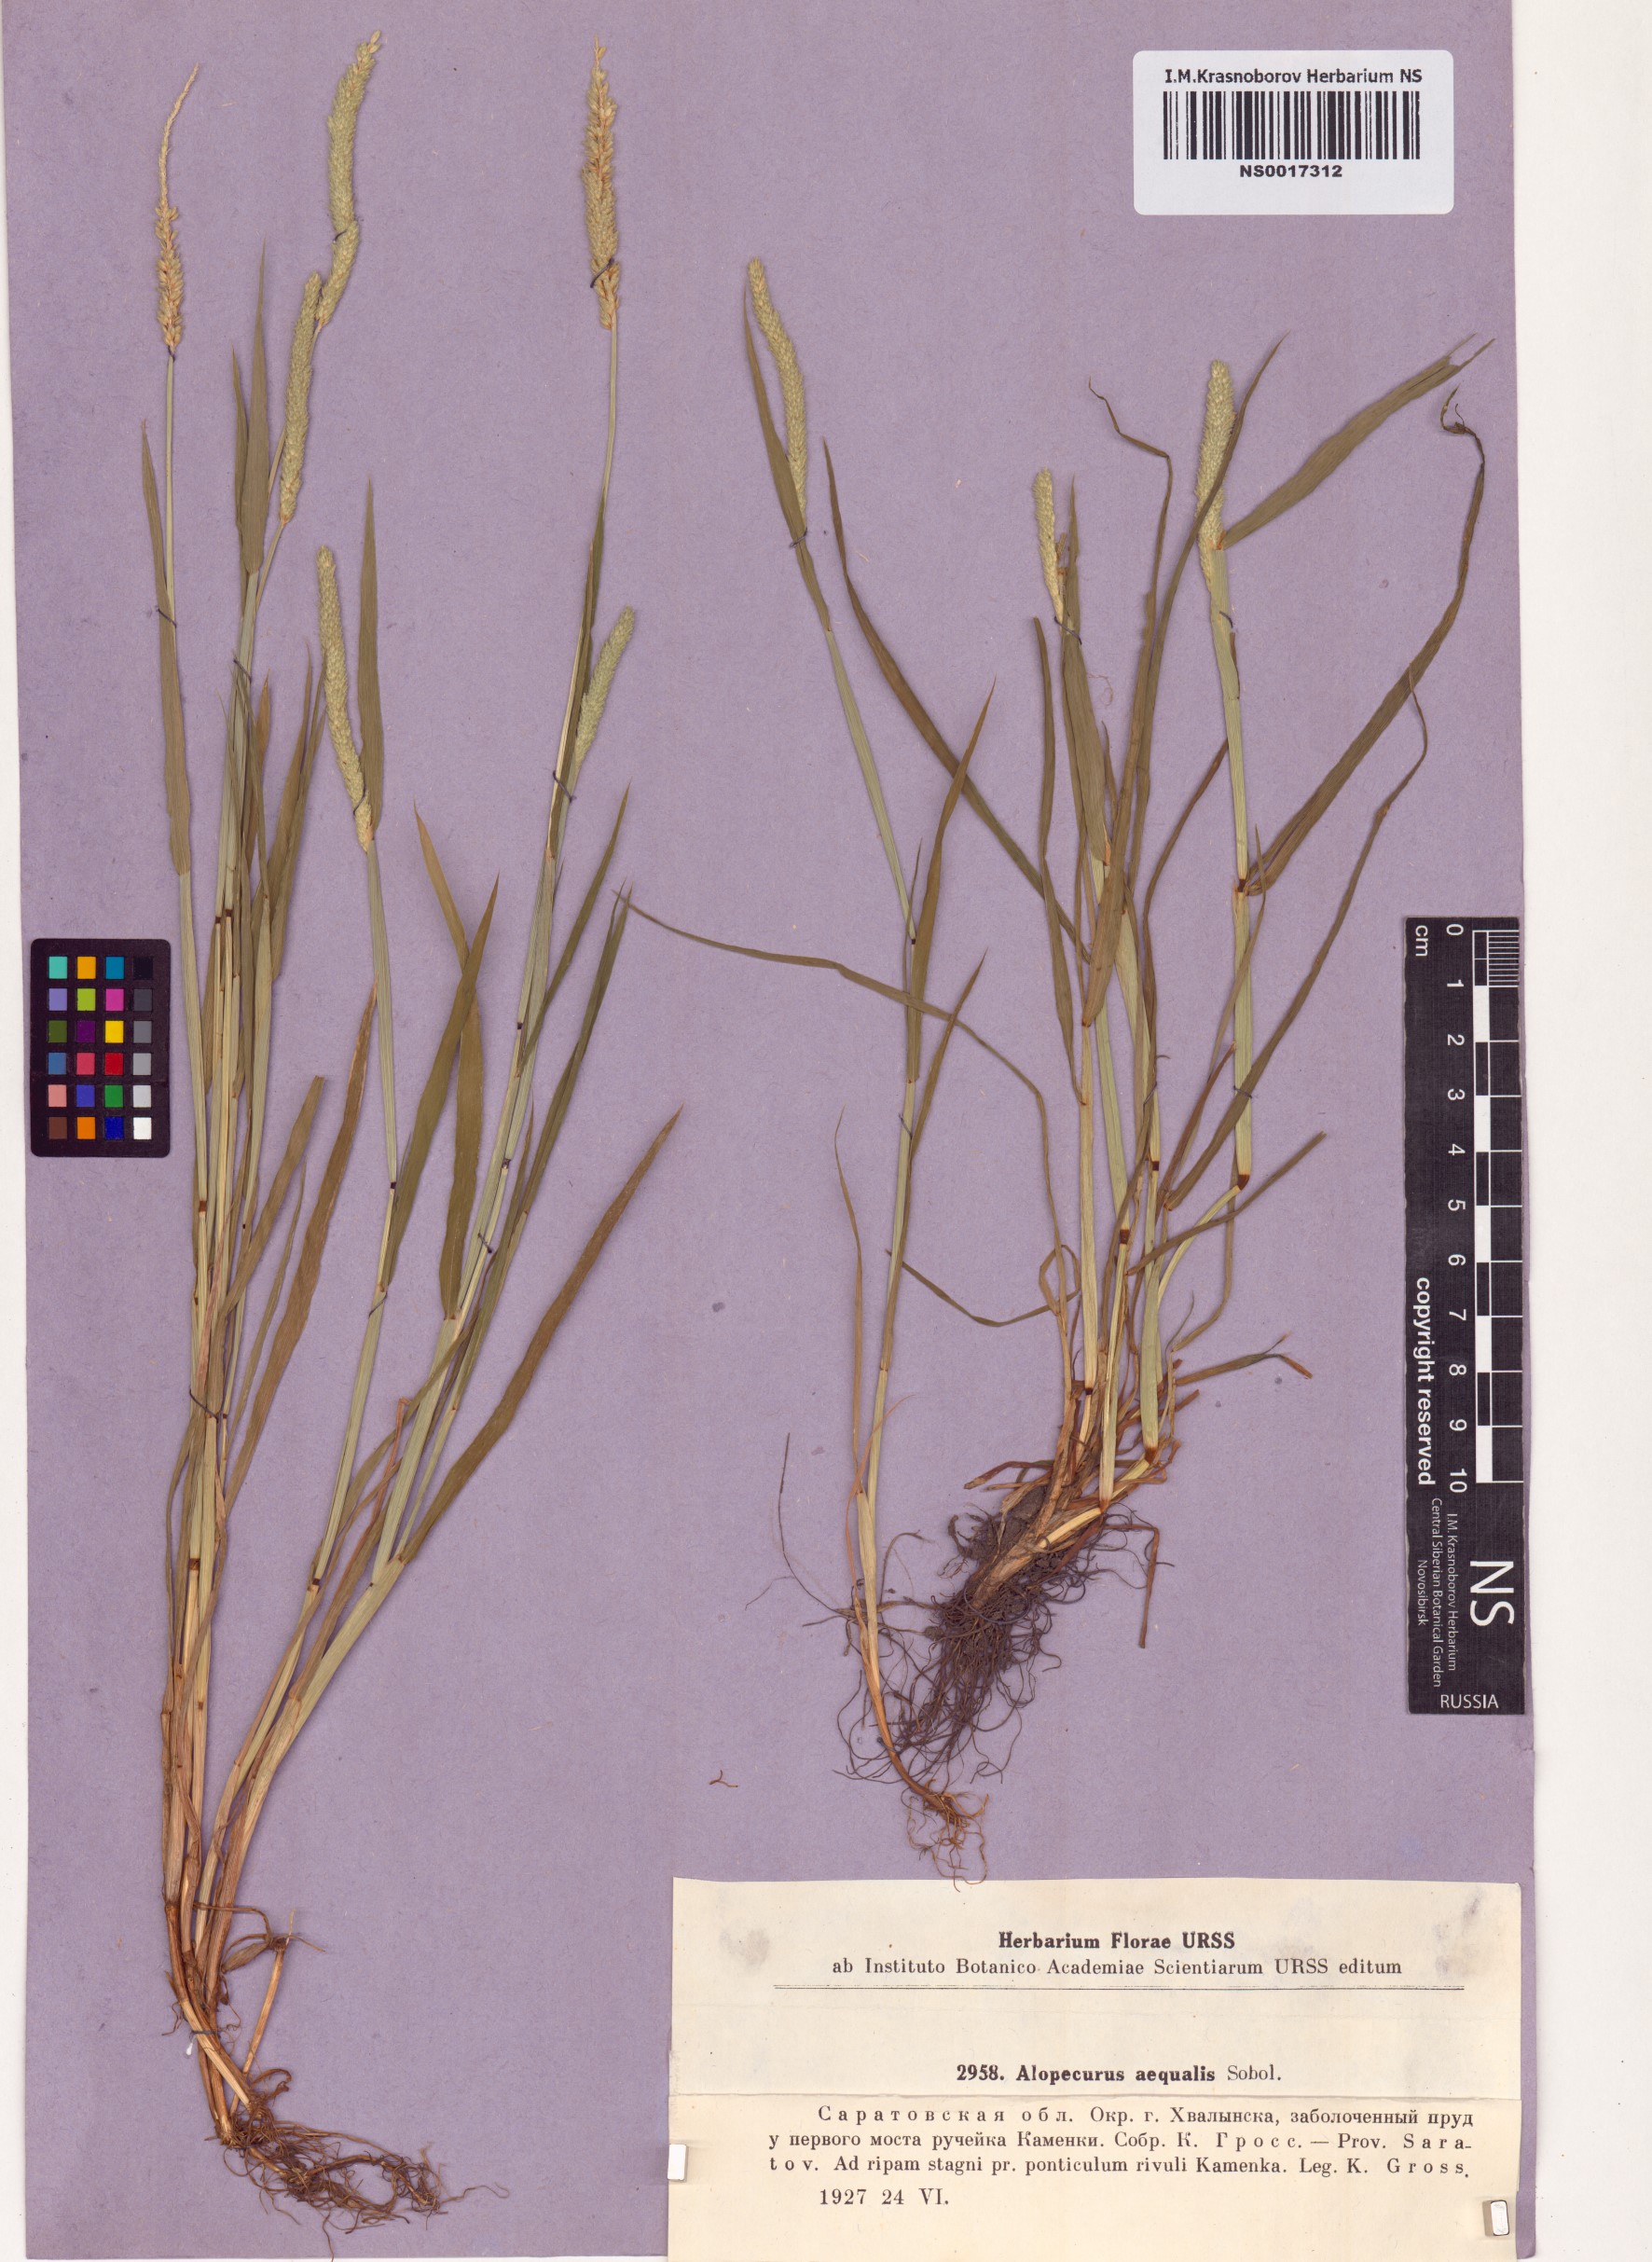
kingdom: Plantae
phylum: Tracheophyta
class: Liliopsida
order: Poales
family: Poaceae
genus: Alopecurus
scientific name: Alopecurus aequalis
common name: Orange foxtail
